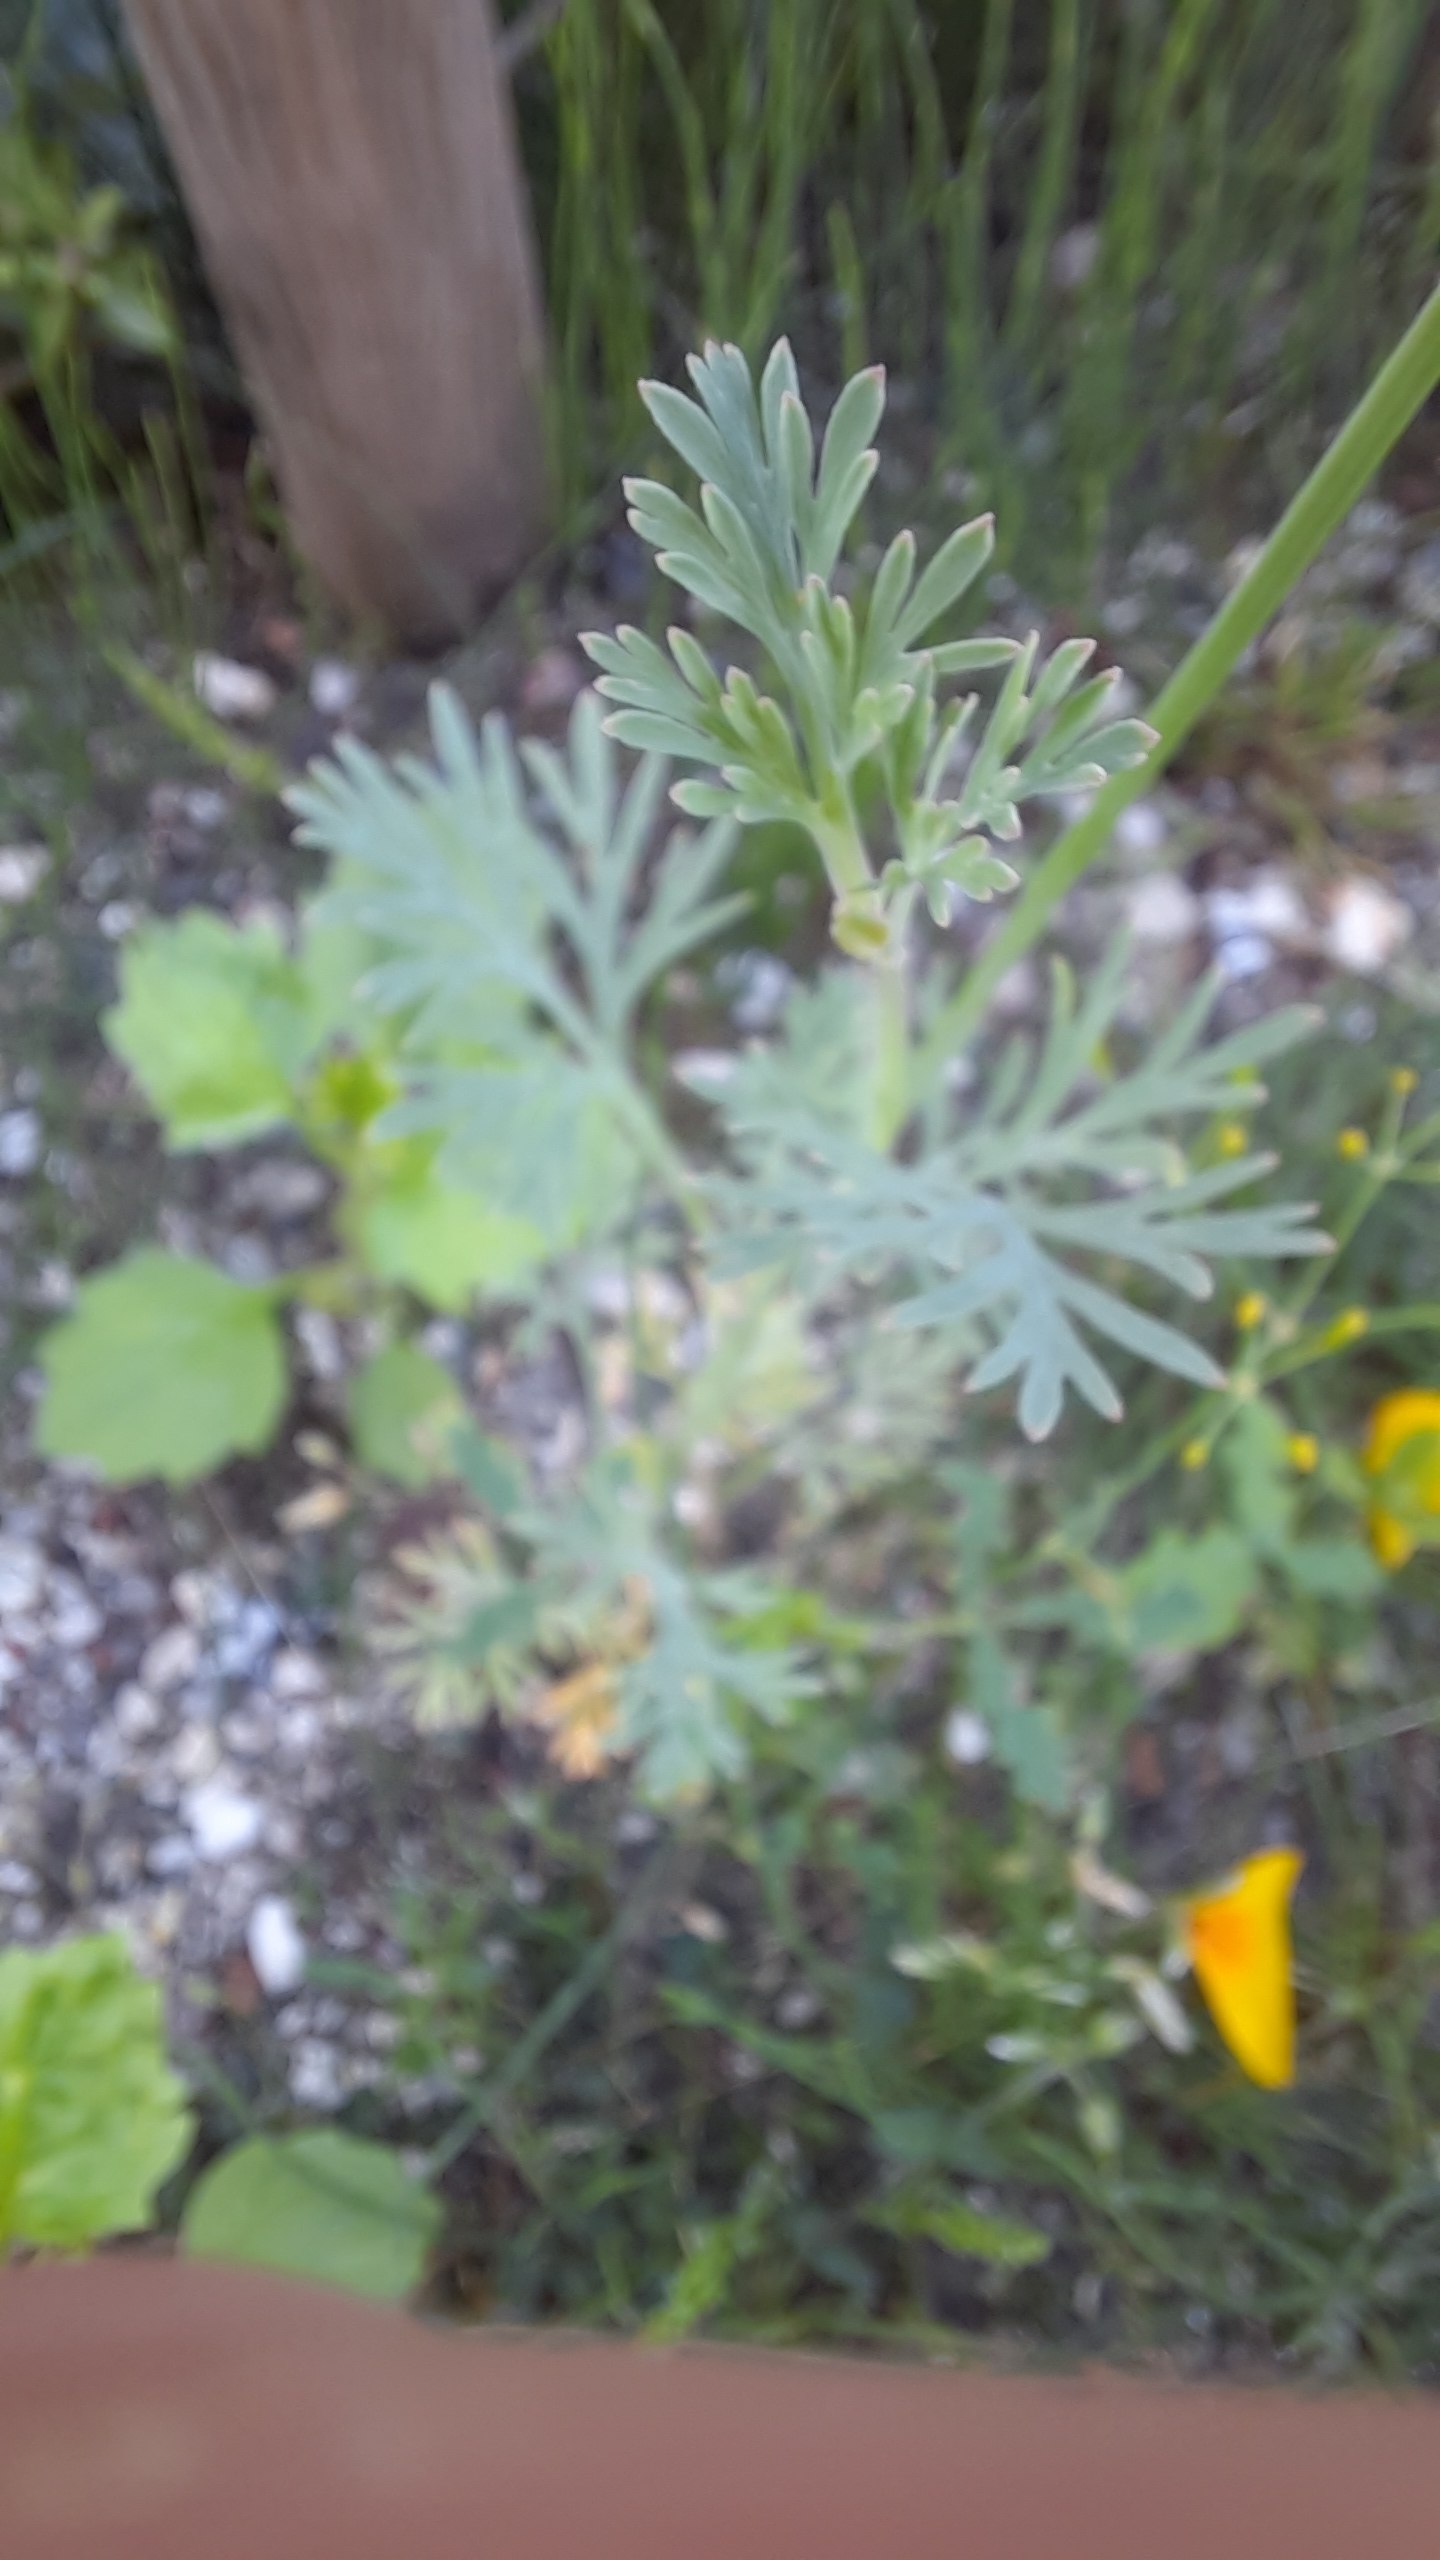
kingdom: Plantae
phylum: Tracheophyta
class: Magnoliopsida
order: Ranunculales
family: Papaveraceae
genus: Eschscholzia
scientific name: Eschscholzia californica
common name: Guldvalmue
